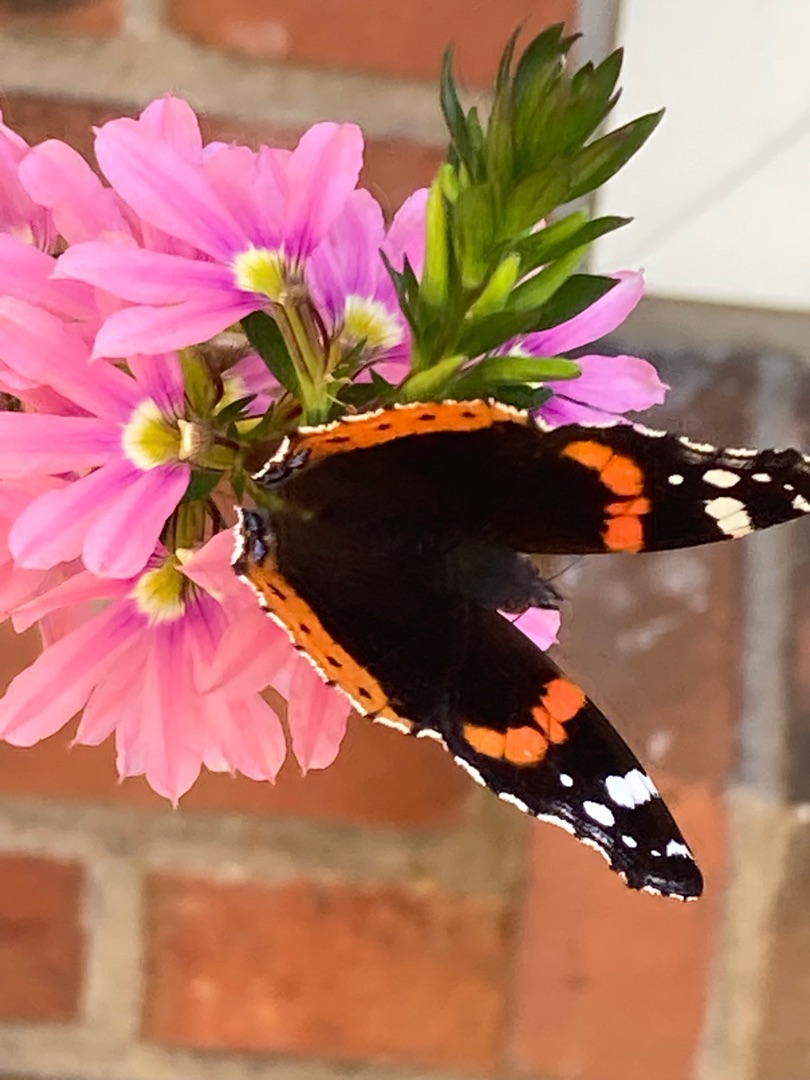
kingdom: Animalia
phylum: Arthropoda
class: Insecta
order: Lepidoptera
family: Nymphalidae
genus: Vanessa
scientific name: Vanessa atalanta
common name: Admiral
